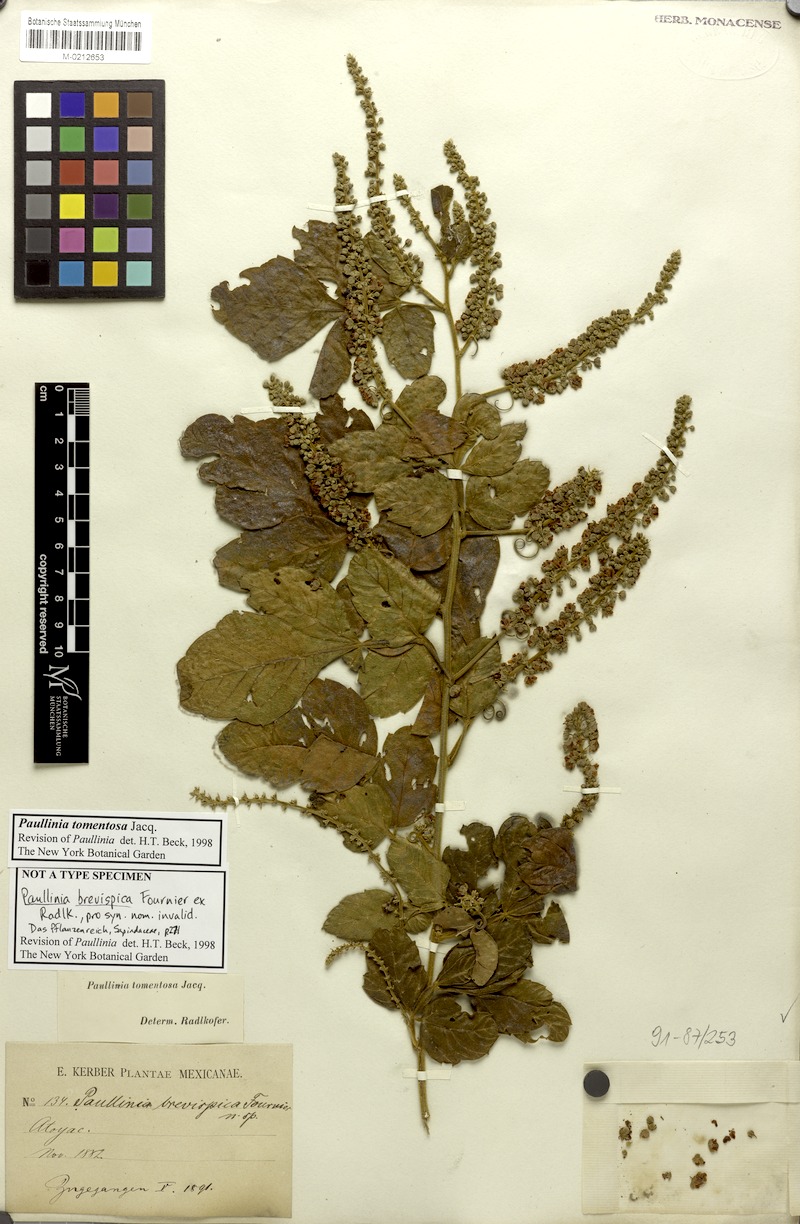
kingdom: Plantae
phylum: Tracheophyta
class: Magnoliopsida
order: Sapindales
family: Sapindaceae
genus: Paullinia
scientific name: Paullinia tomentosa
